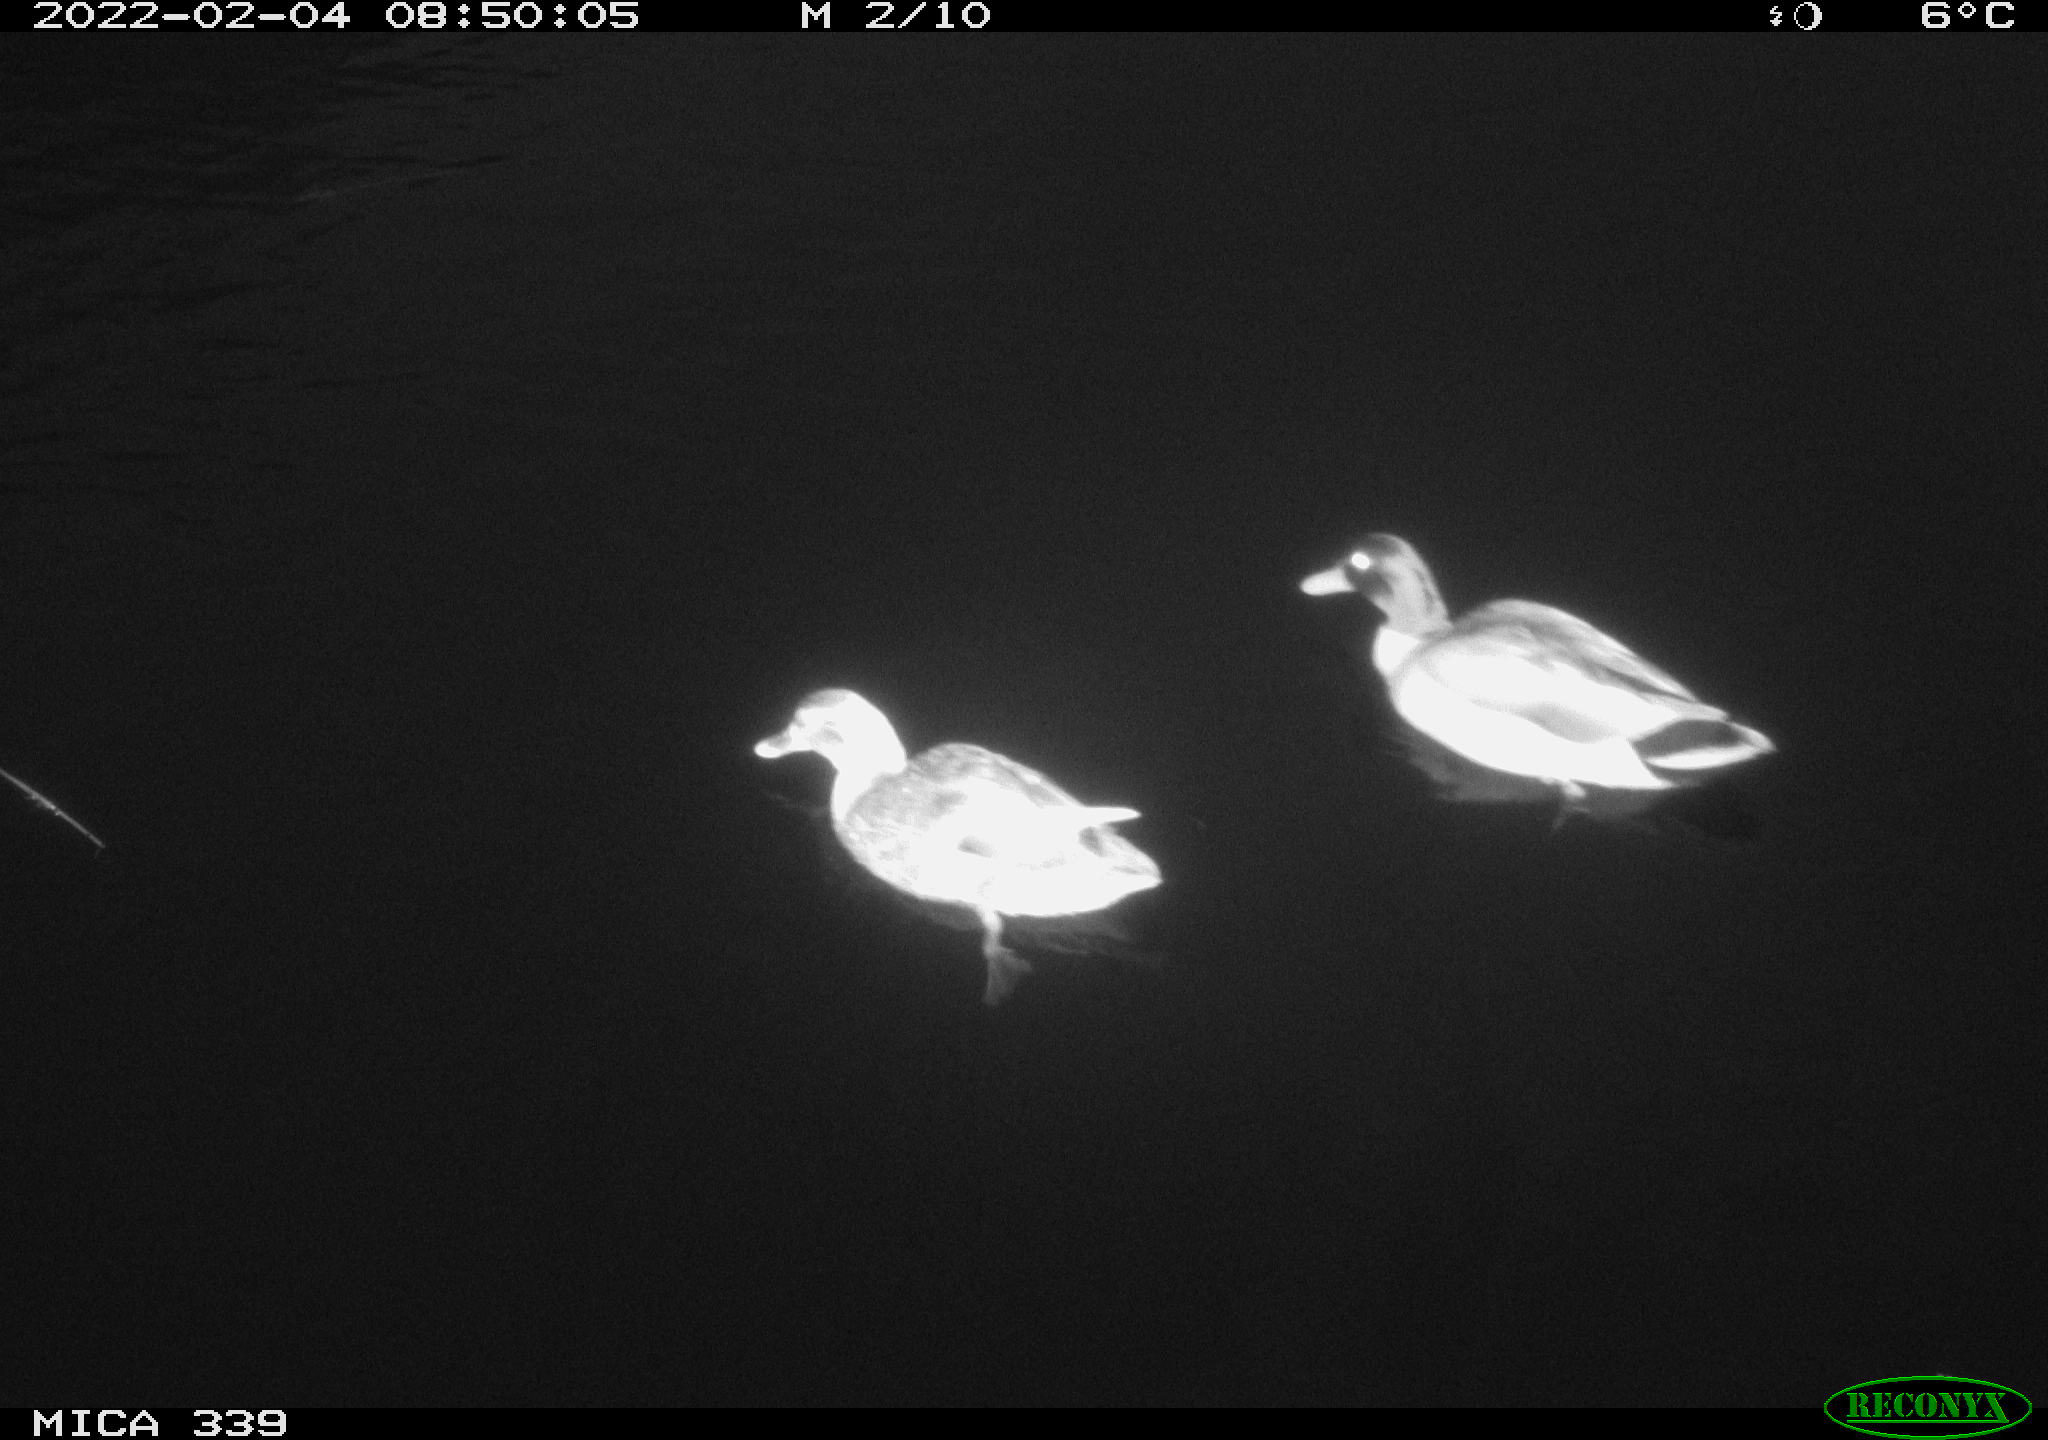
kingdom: Animalia
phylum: Chordata
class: Aves
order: Anseriformes
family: Anatidae
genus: Anas
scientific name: Anas platyrhynchos
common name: Mallard
